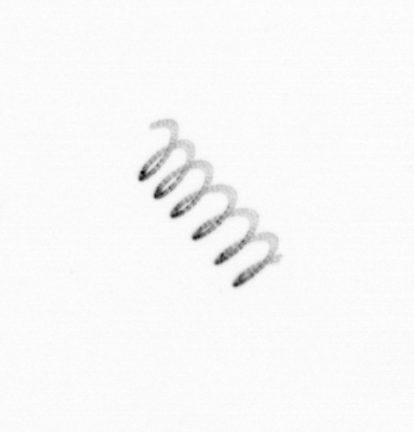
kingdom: Chromista
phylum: Ochrophyta
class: Bacillariophyceae
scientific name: Bacillariophyceae
